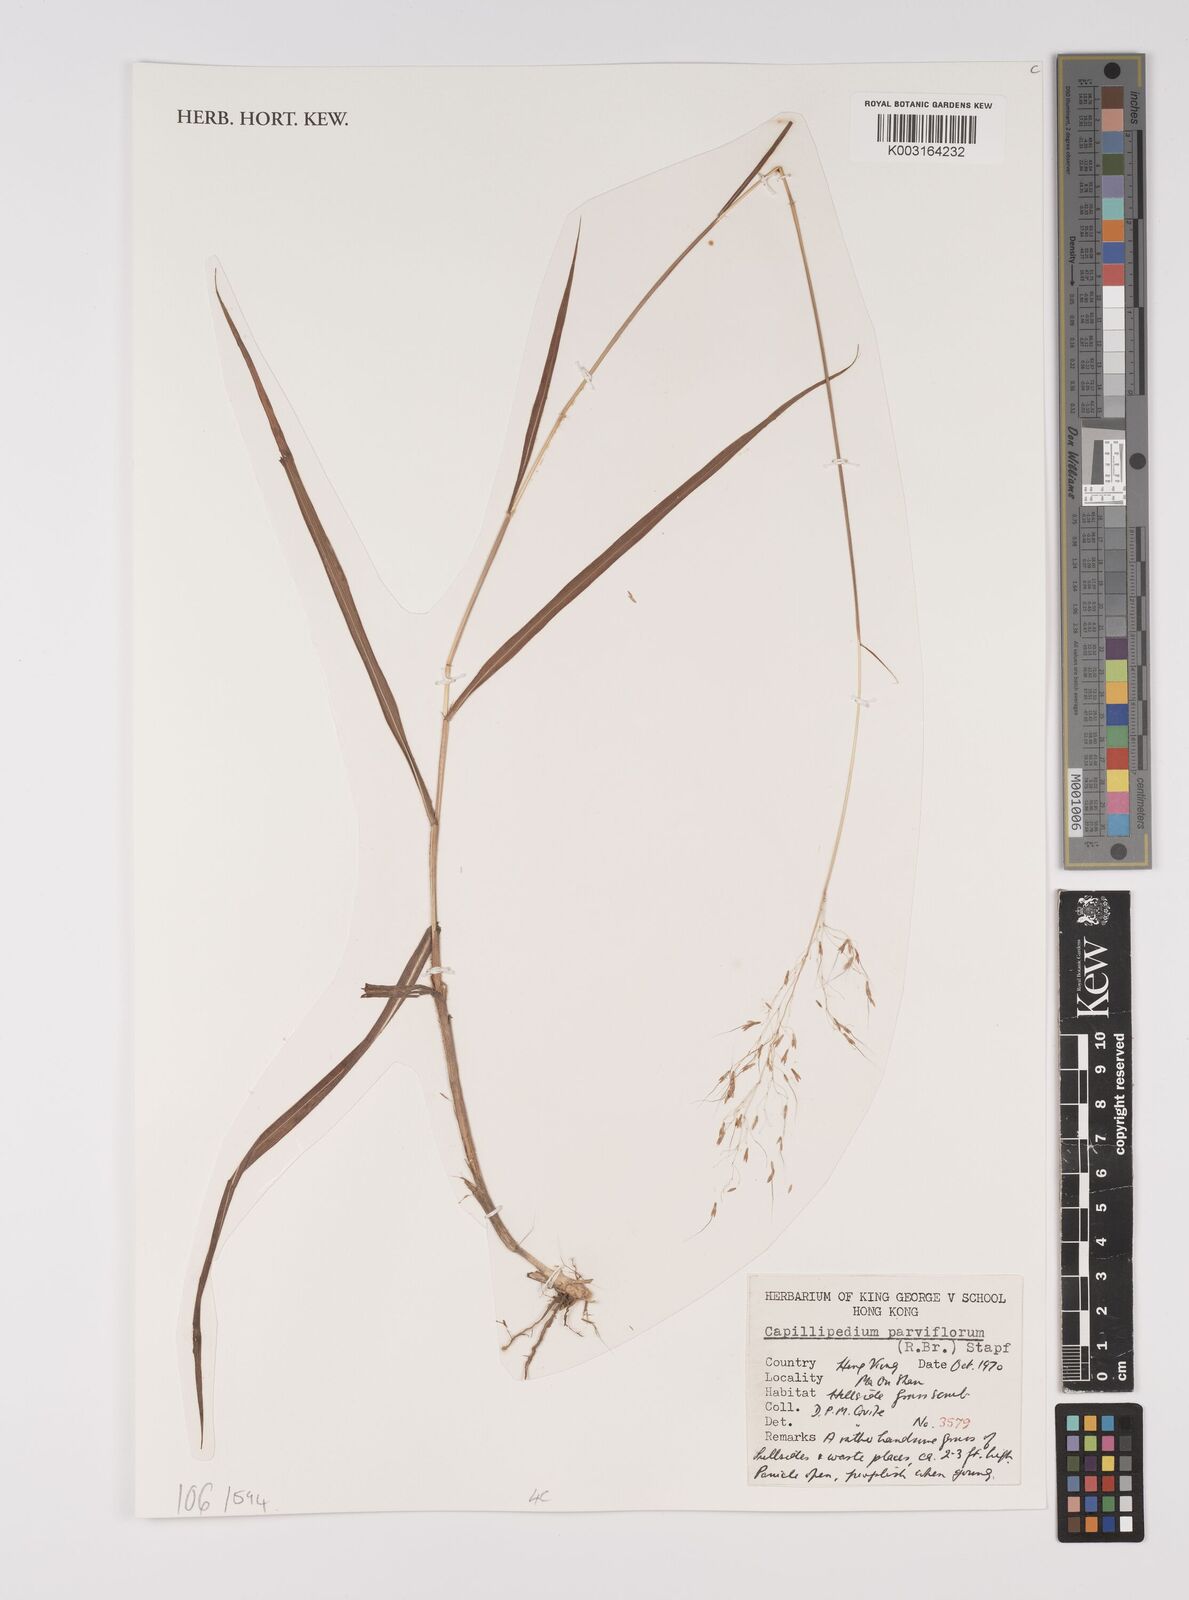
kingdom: Plantae
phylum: Tracheophyta
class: Liliopsida
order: Poales
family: Poaceae
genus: Capillipedium
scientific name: Capillipedium parviflorum
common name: Golden-beard
